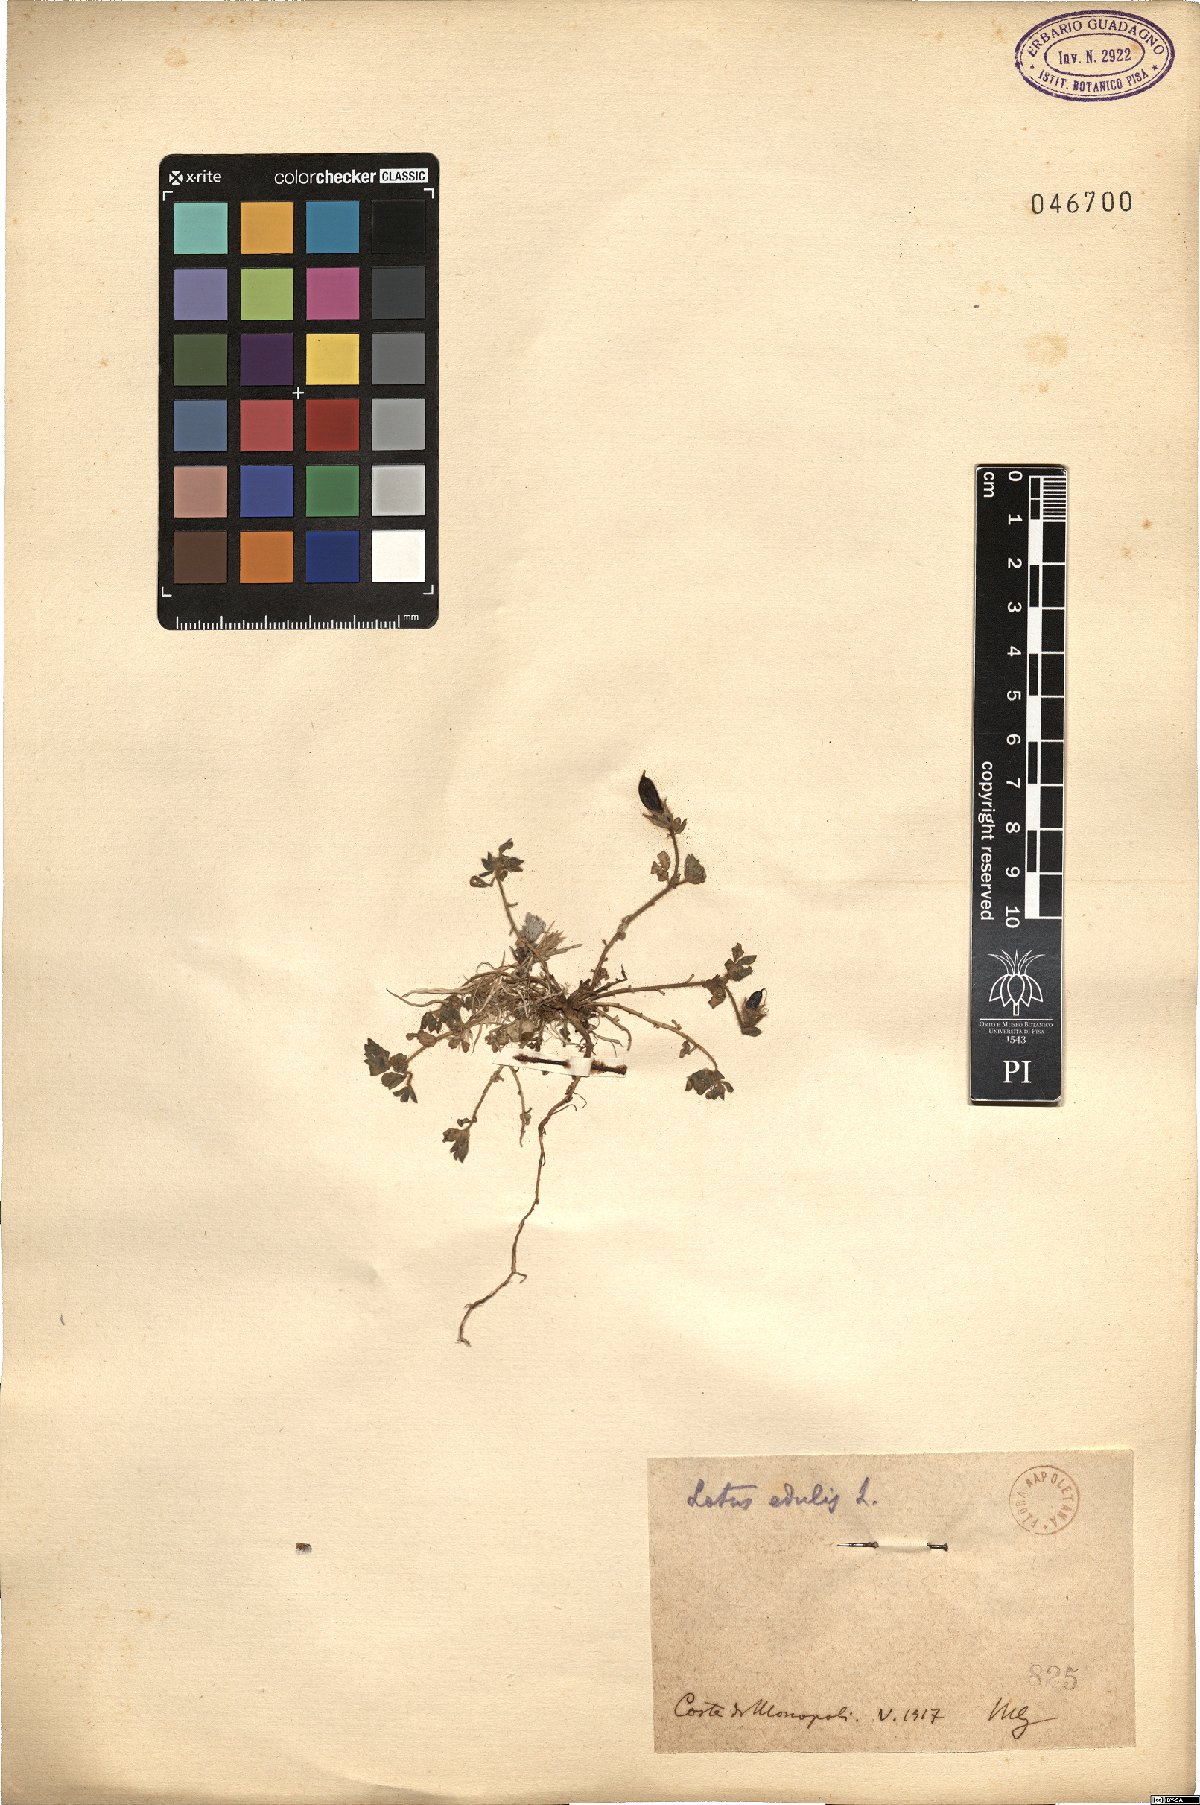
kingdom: Plantae
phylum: Tracheophyta
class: Magnoliopsida
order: Fabales
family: Fabaceae
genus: Lotus
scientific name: Lotus edulis
